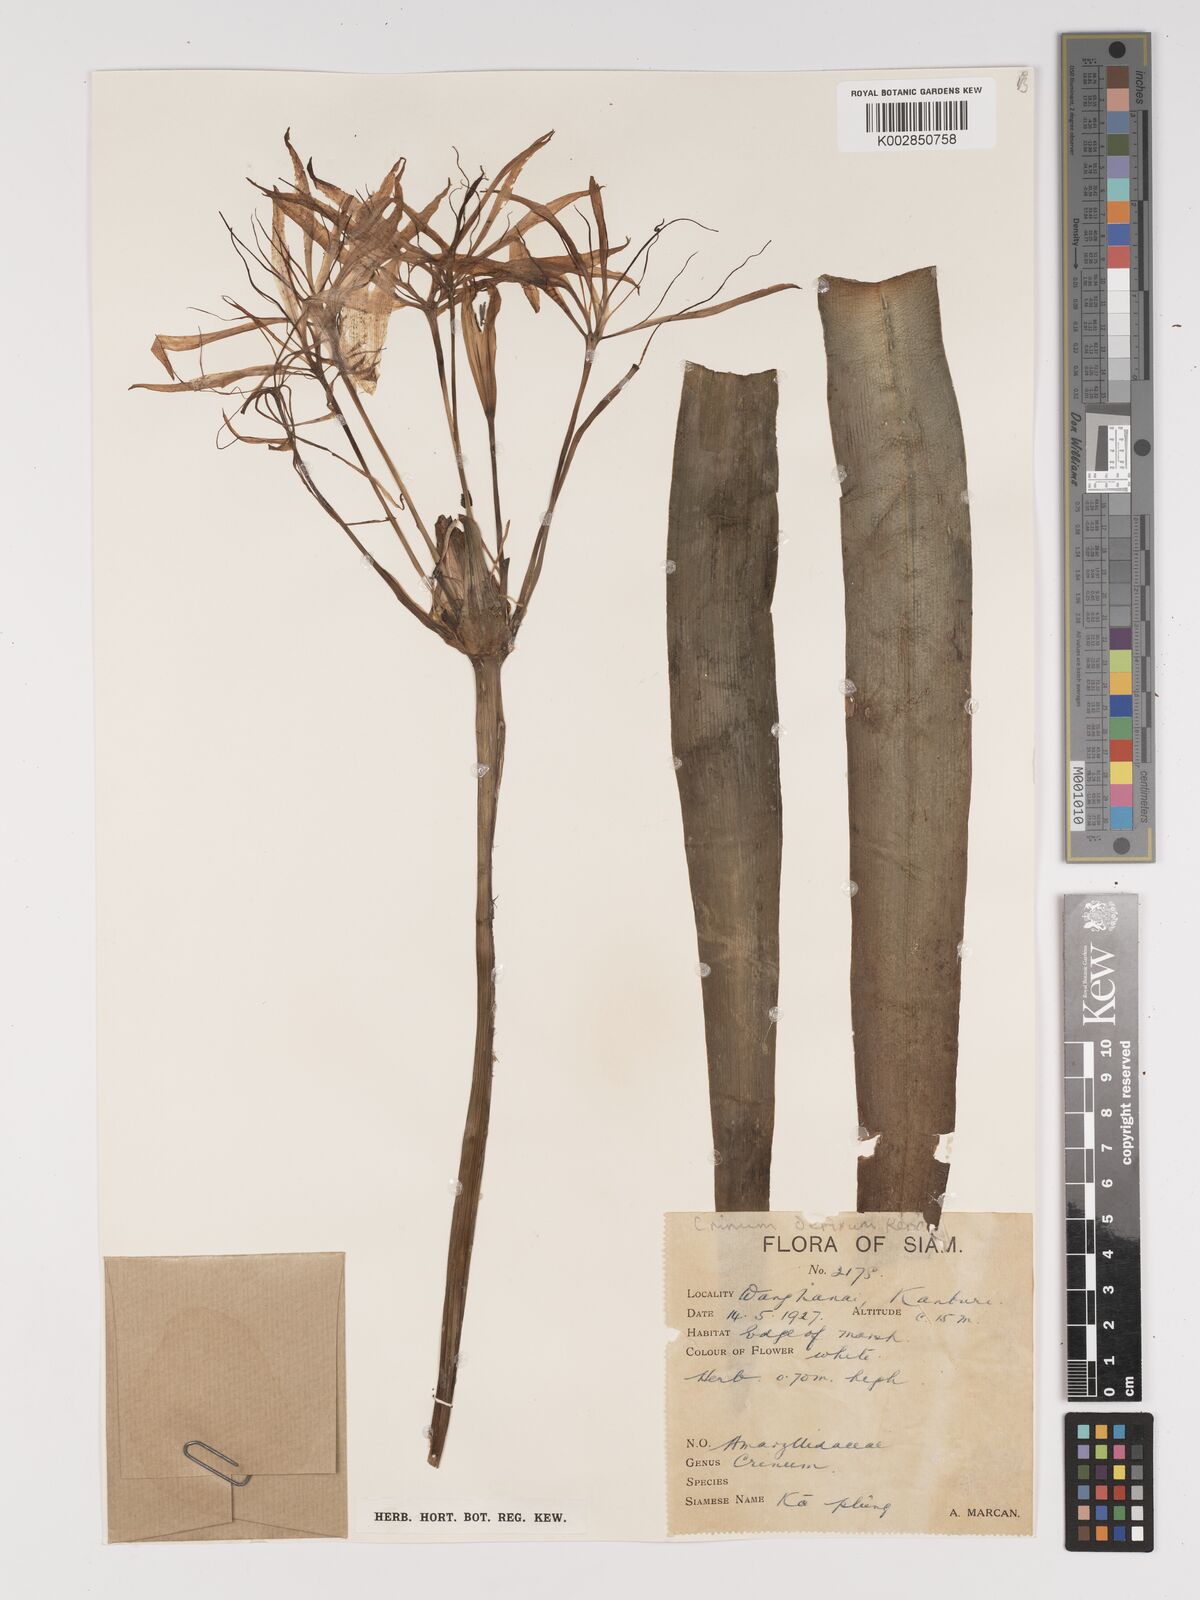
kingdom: Plantae
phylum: Tracheophyta
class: Liliopsida
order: Asparagales
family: Amaryllidaceae
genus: Crinum
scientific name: Crinum defixum
